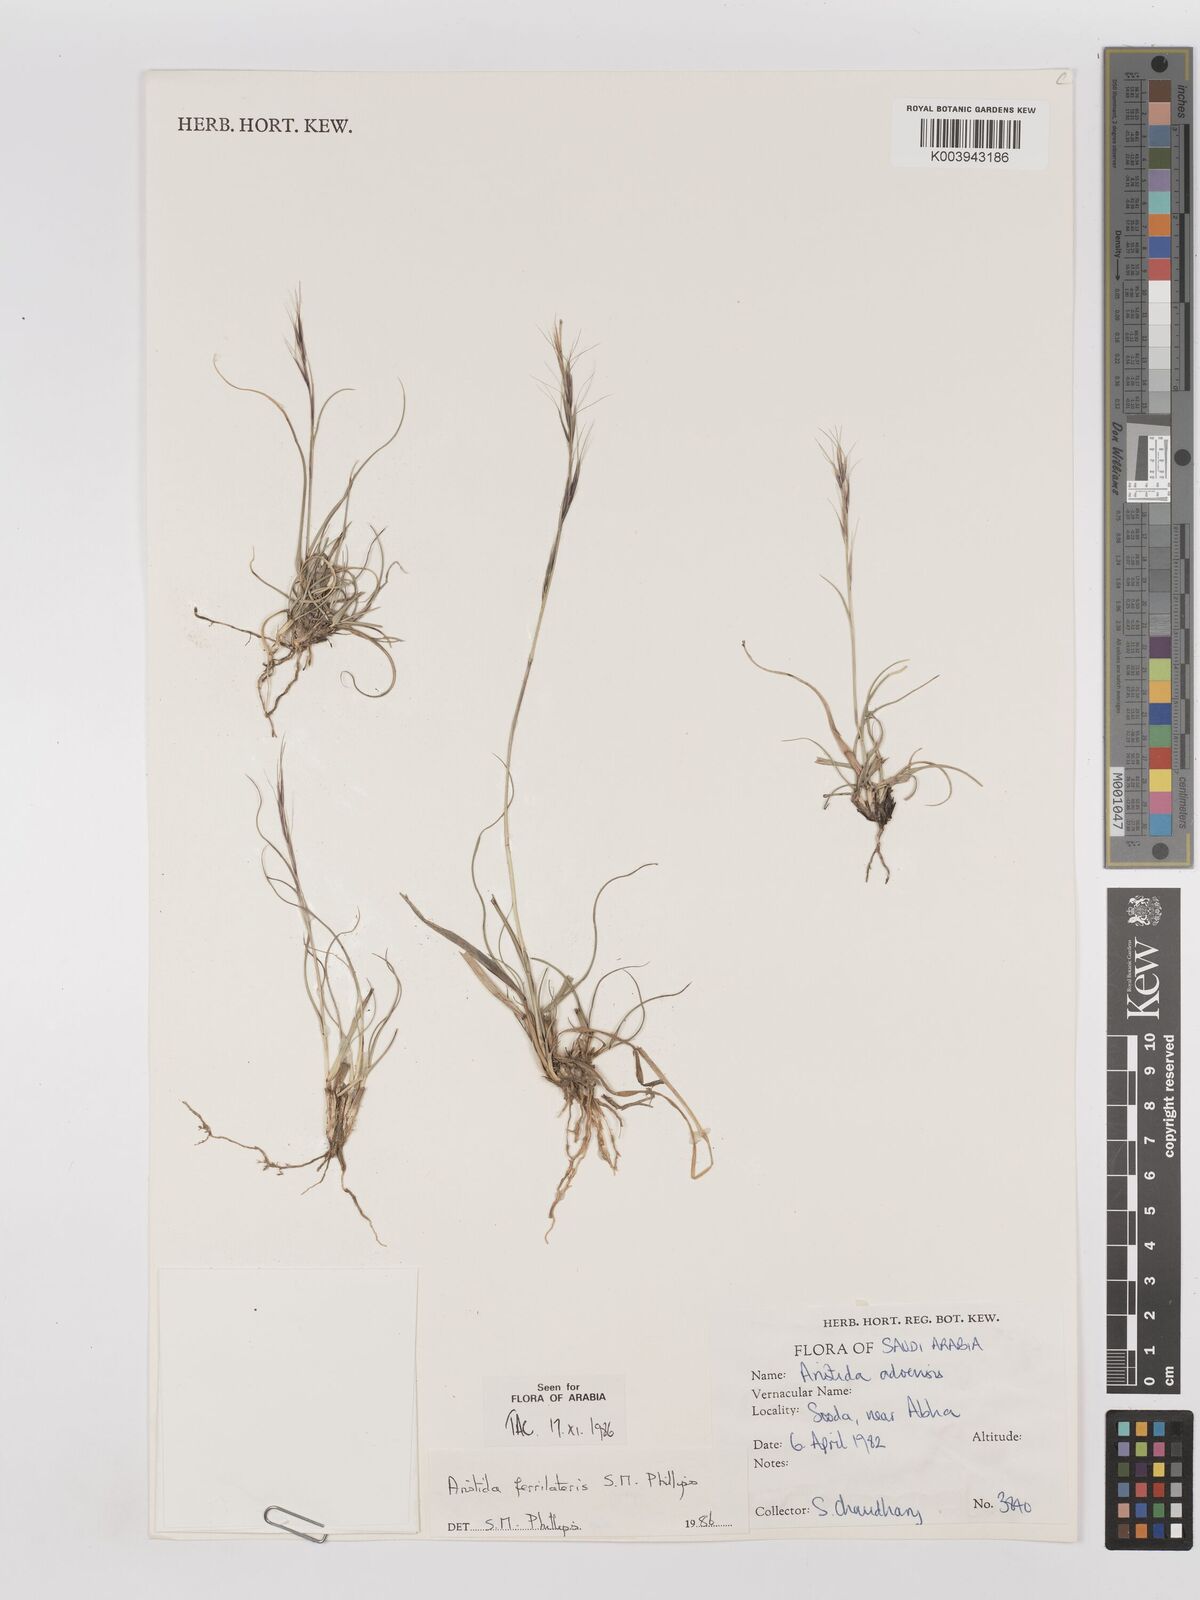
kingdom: Plantae
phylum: Tracheophyta
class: Liliopsida
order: Poales
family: Poaceae
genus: Aristida
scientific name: Aristida ferrilateris
